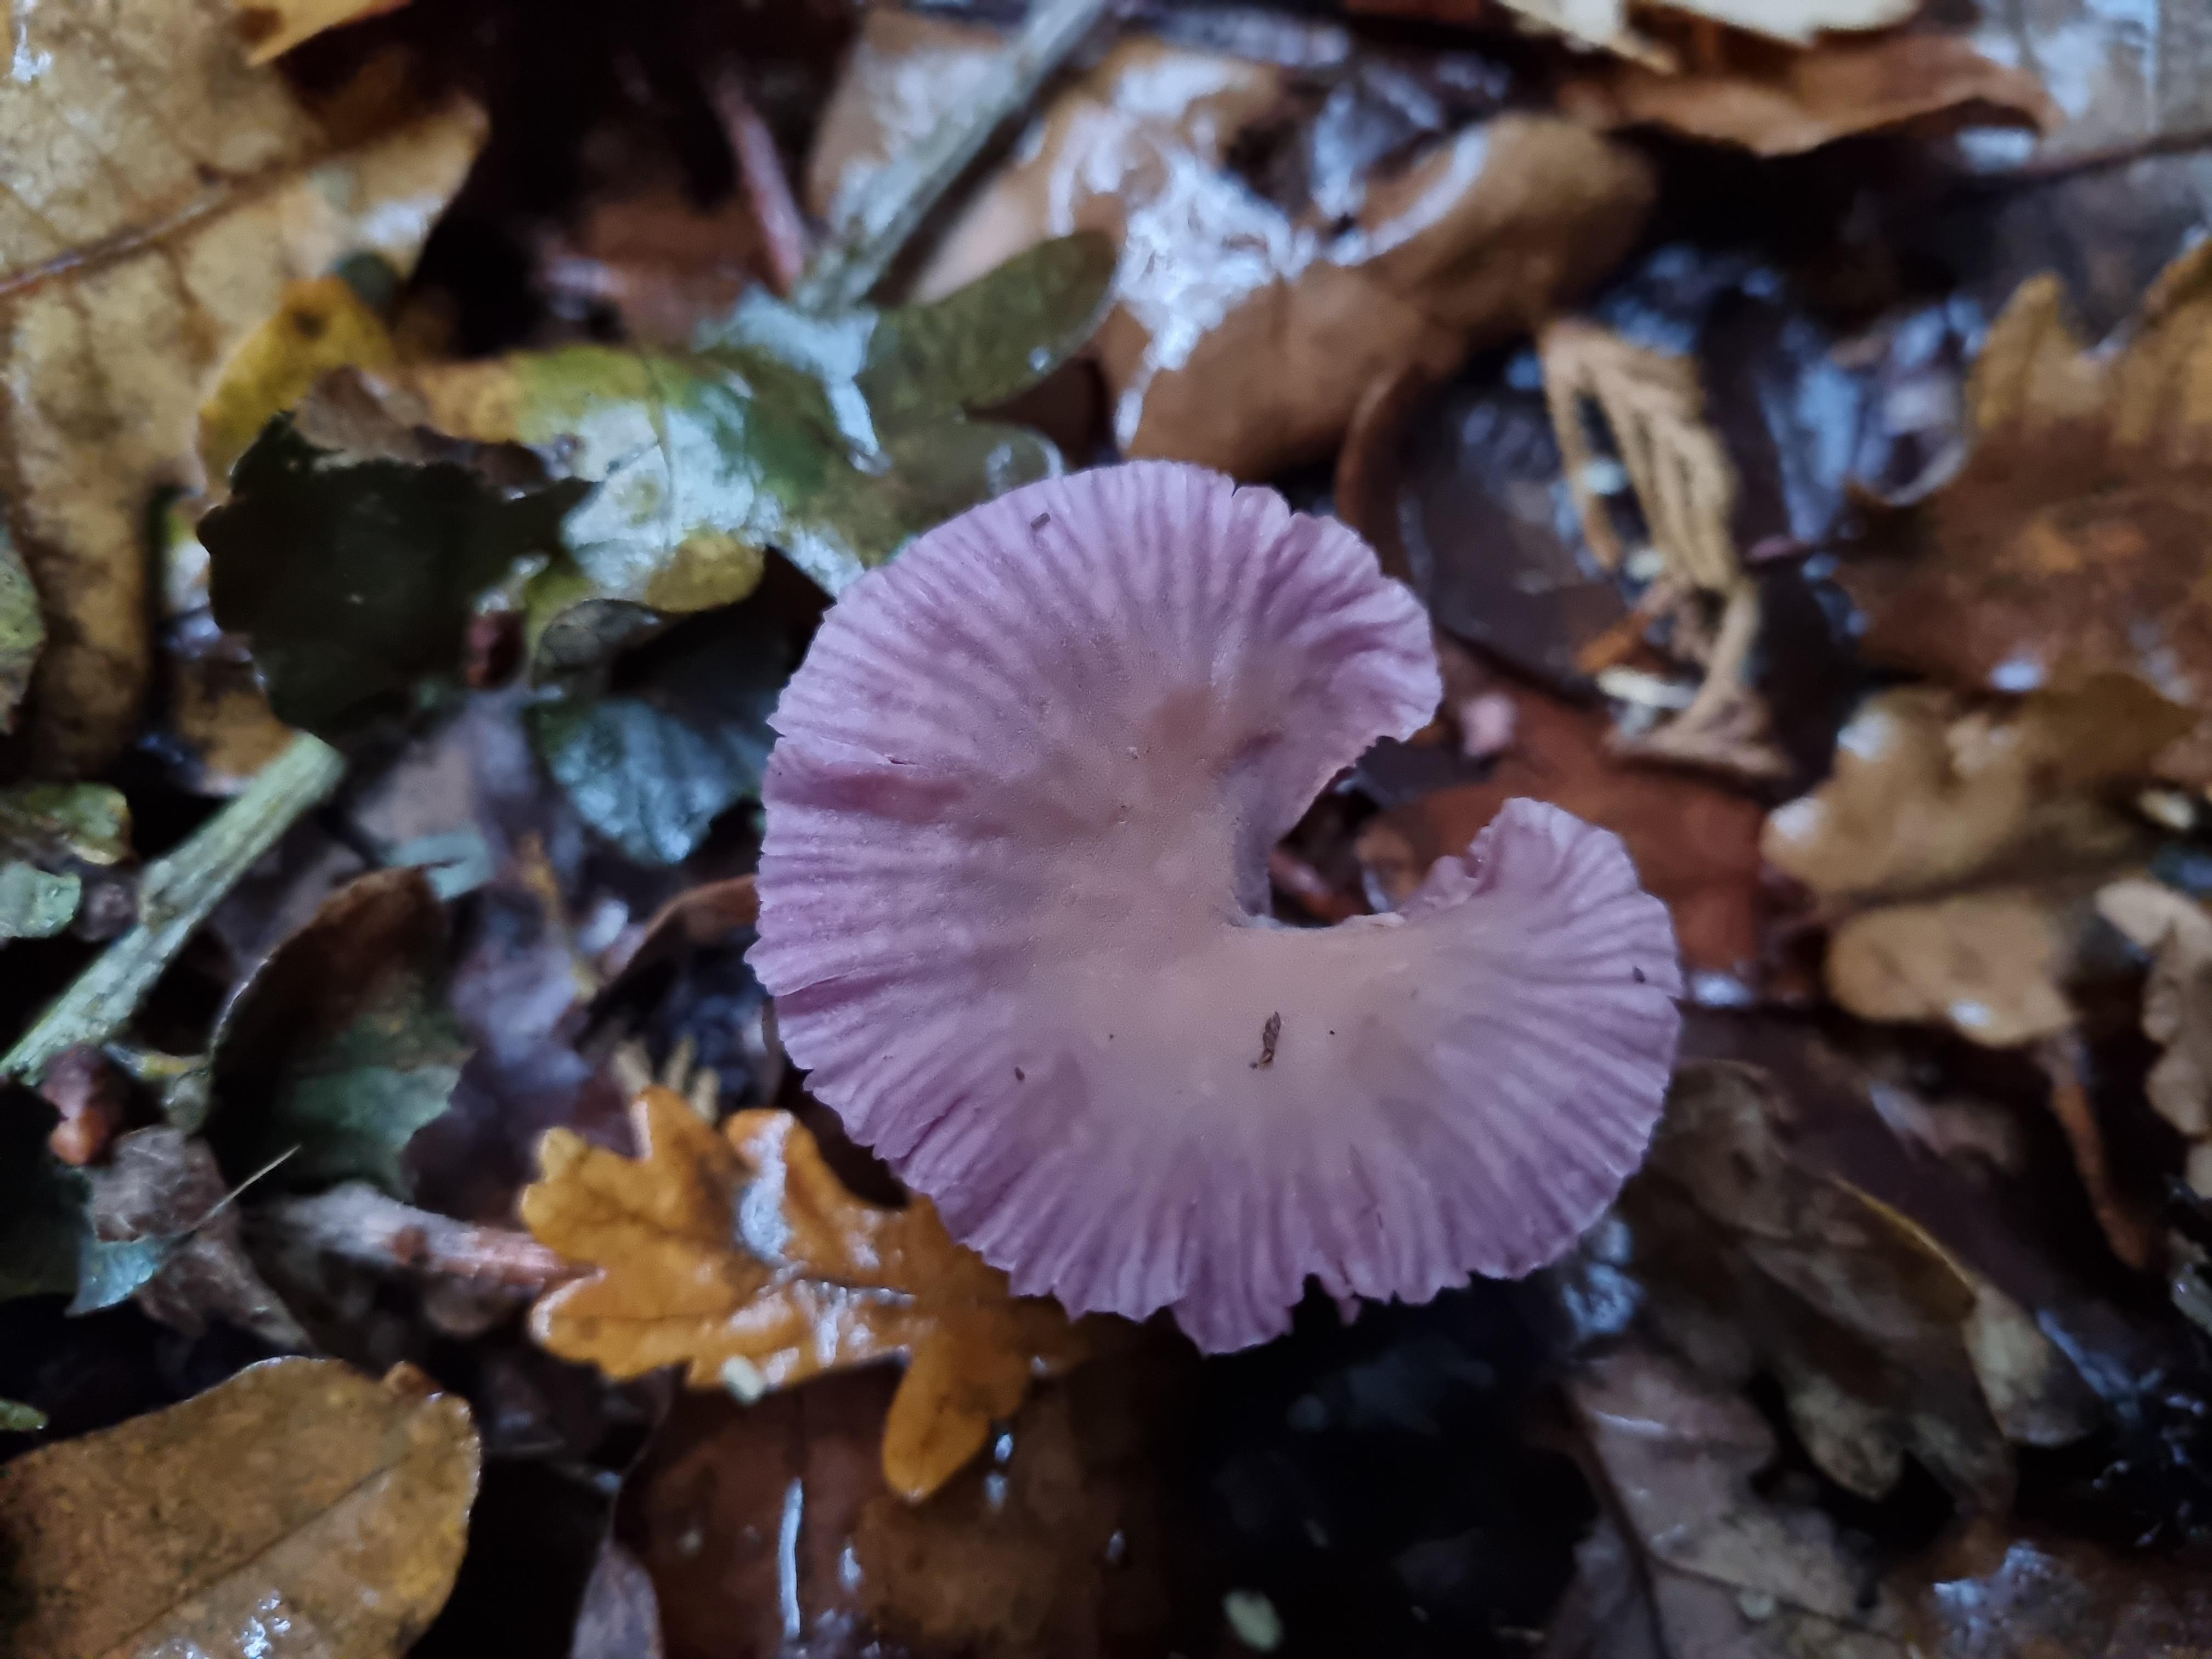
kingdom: Fungi
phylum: Basidiomycota
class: Agaricomycetes
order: Agaricales
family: Hydnangiaceae
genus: Laccaria
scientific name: Laccaria amethystina
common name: violet ametysthat
